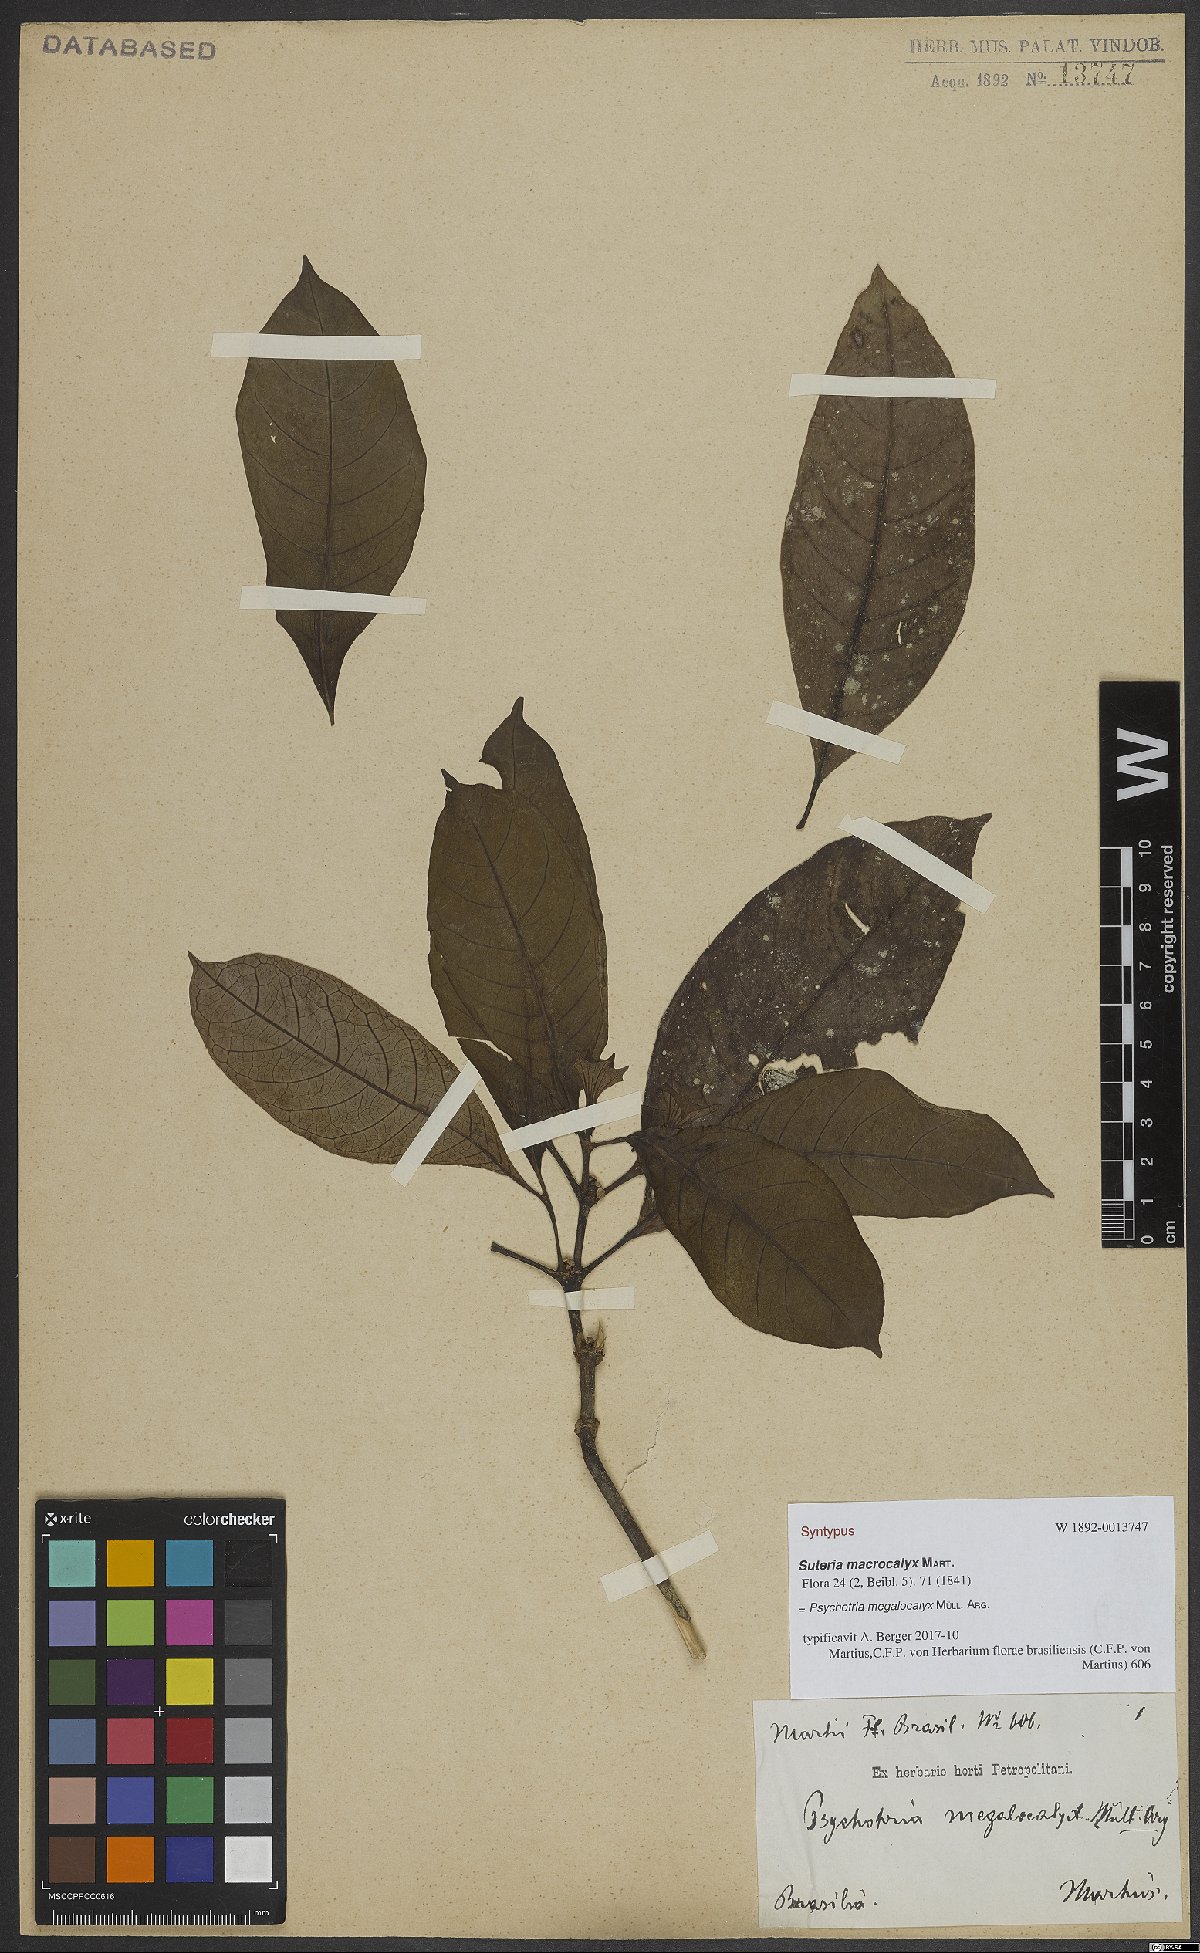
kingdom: Plantae
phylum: Tracheophyta
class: Magnoliopsida
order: Gentianales
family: Rubiaceae
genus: Psychotria
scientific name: Psychotria megalocalyx
